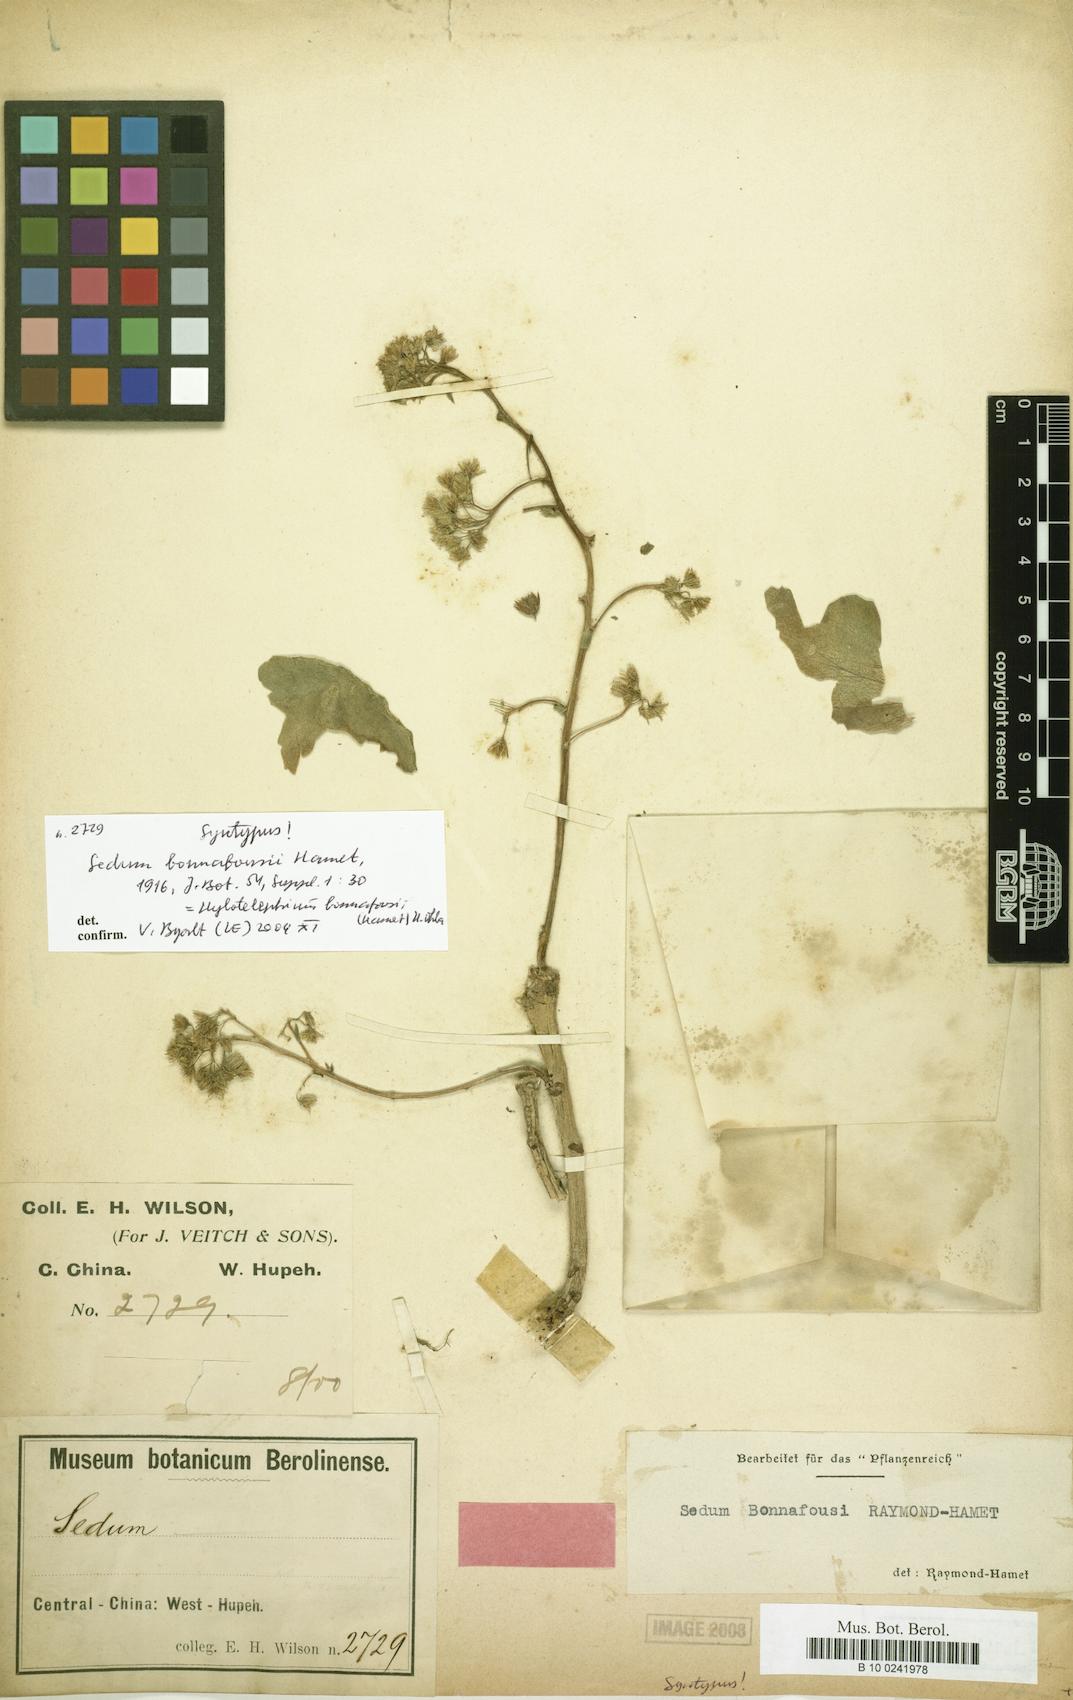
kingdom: Plantae
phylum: Tracheophyta
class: Magnoliopsida
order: Saxifragales
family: Crassulaceae
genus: Hylotelephium
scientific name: Hylotelephium bonnafousi
